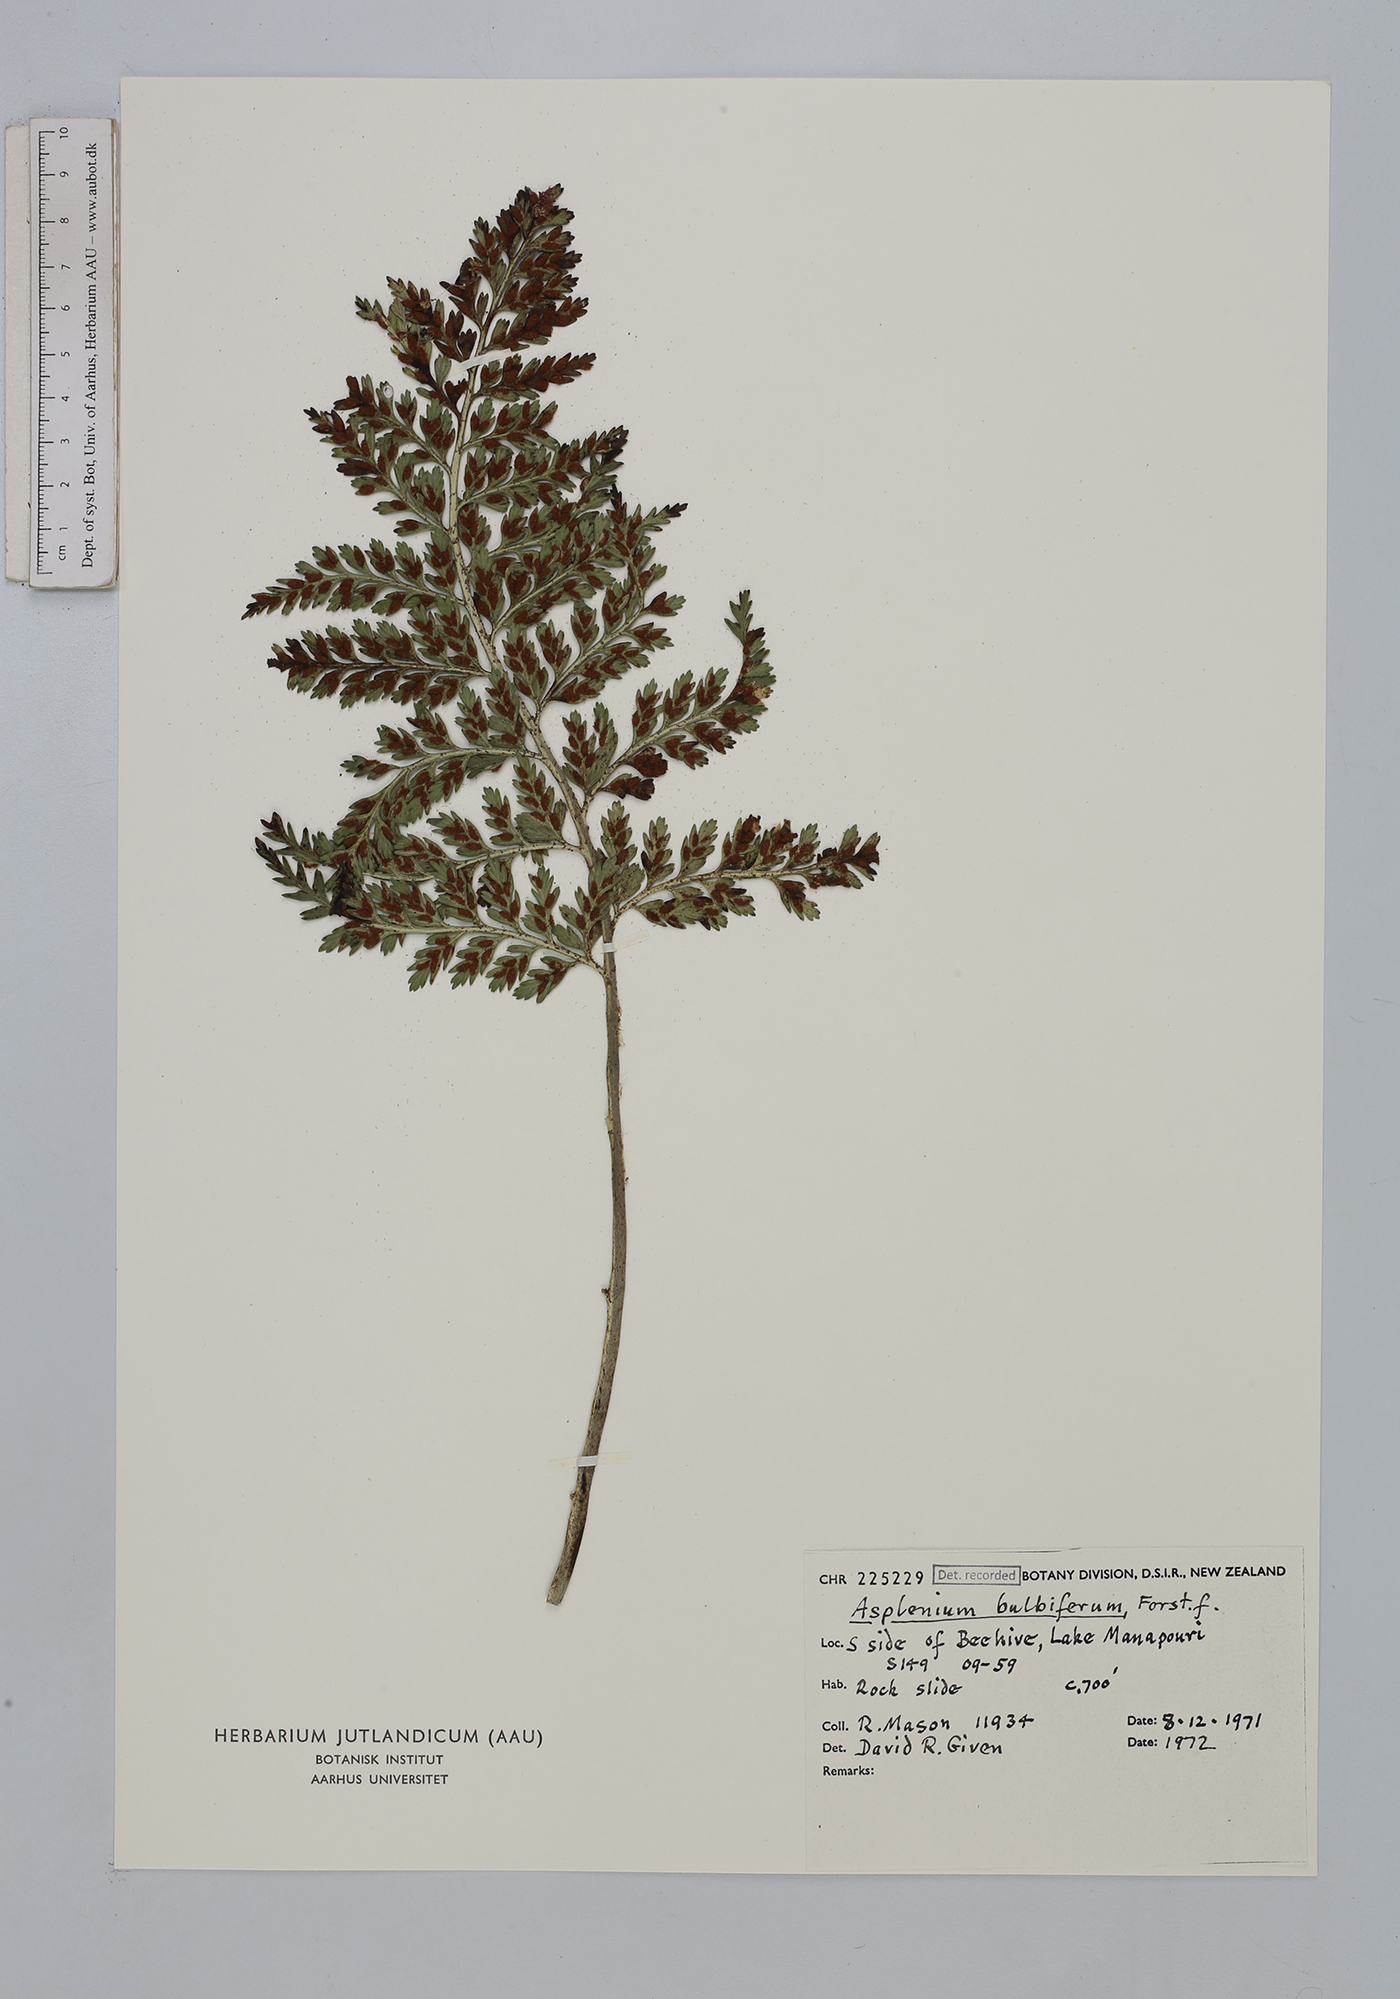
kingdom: Plantae
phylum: Tracheophyta
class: Polypodiopsida
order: Polypodiales
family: Aspleniaceae
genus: Asplenium
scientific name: Asplenium bulbiferum
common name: Mother fern
